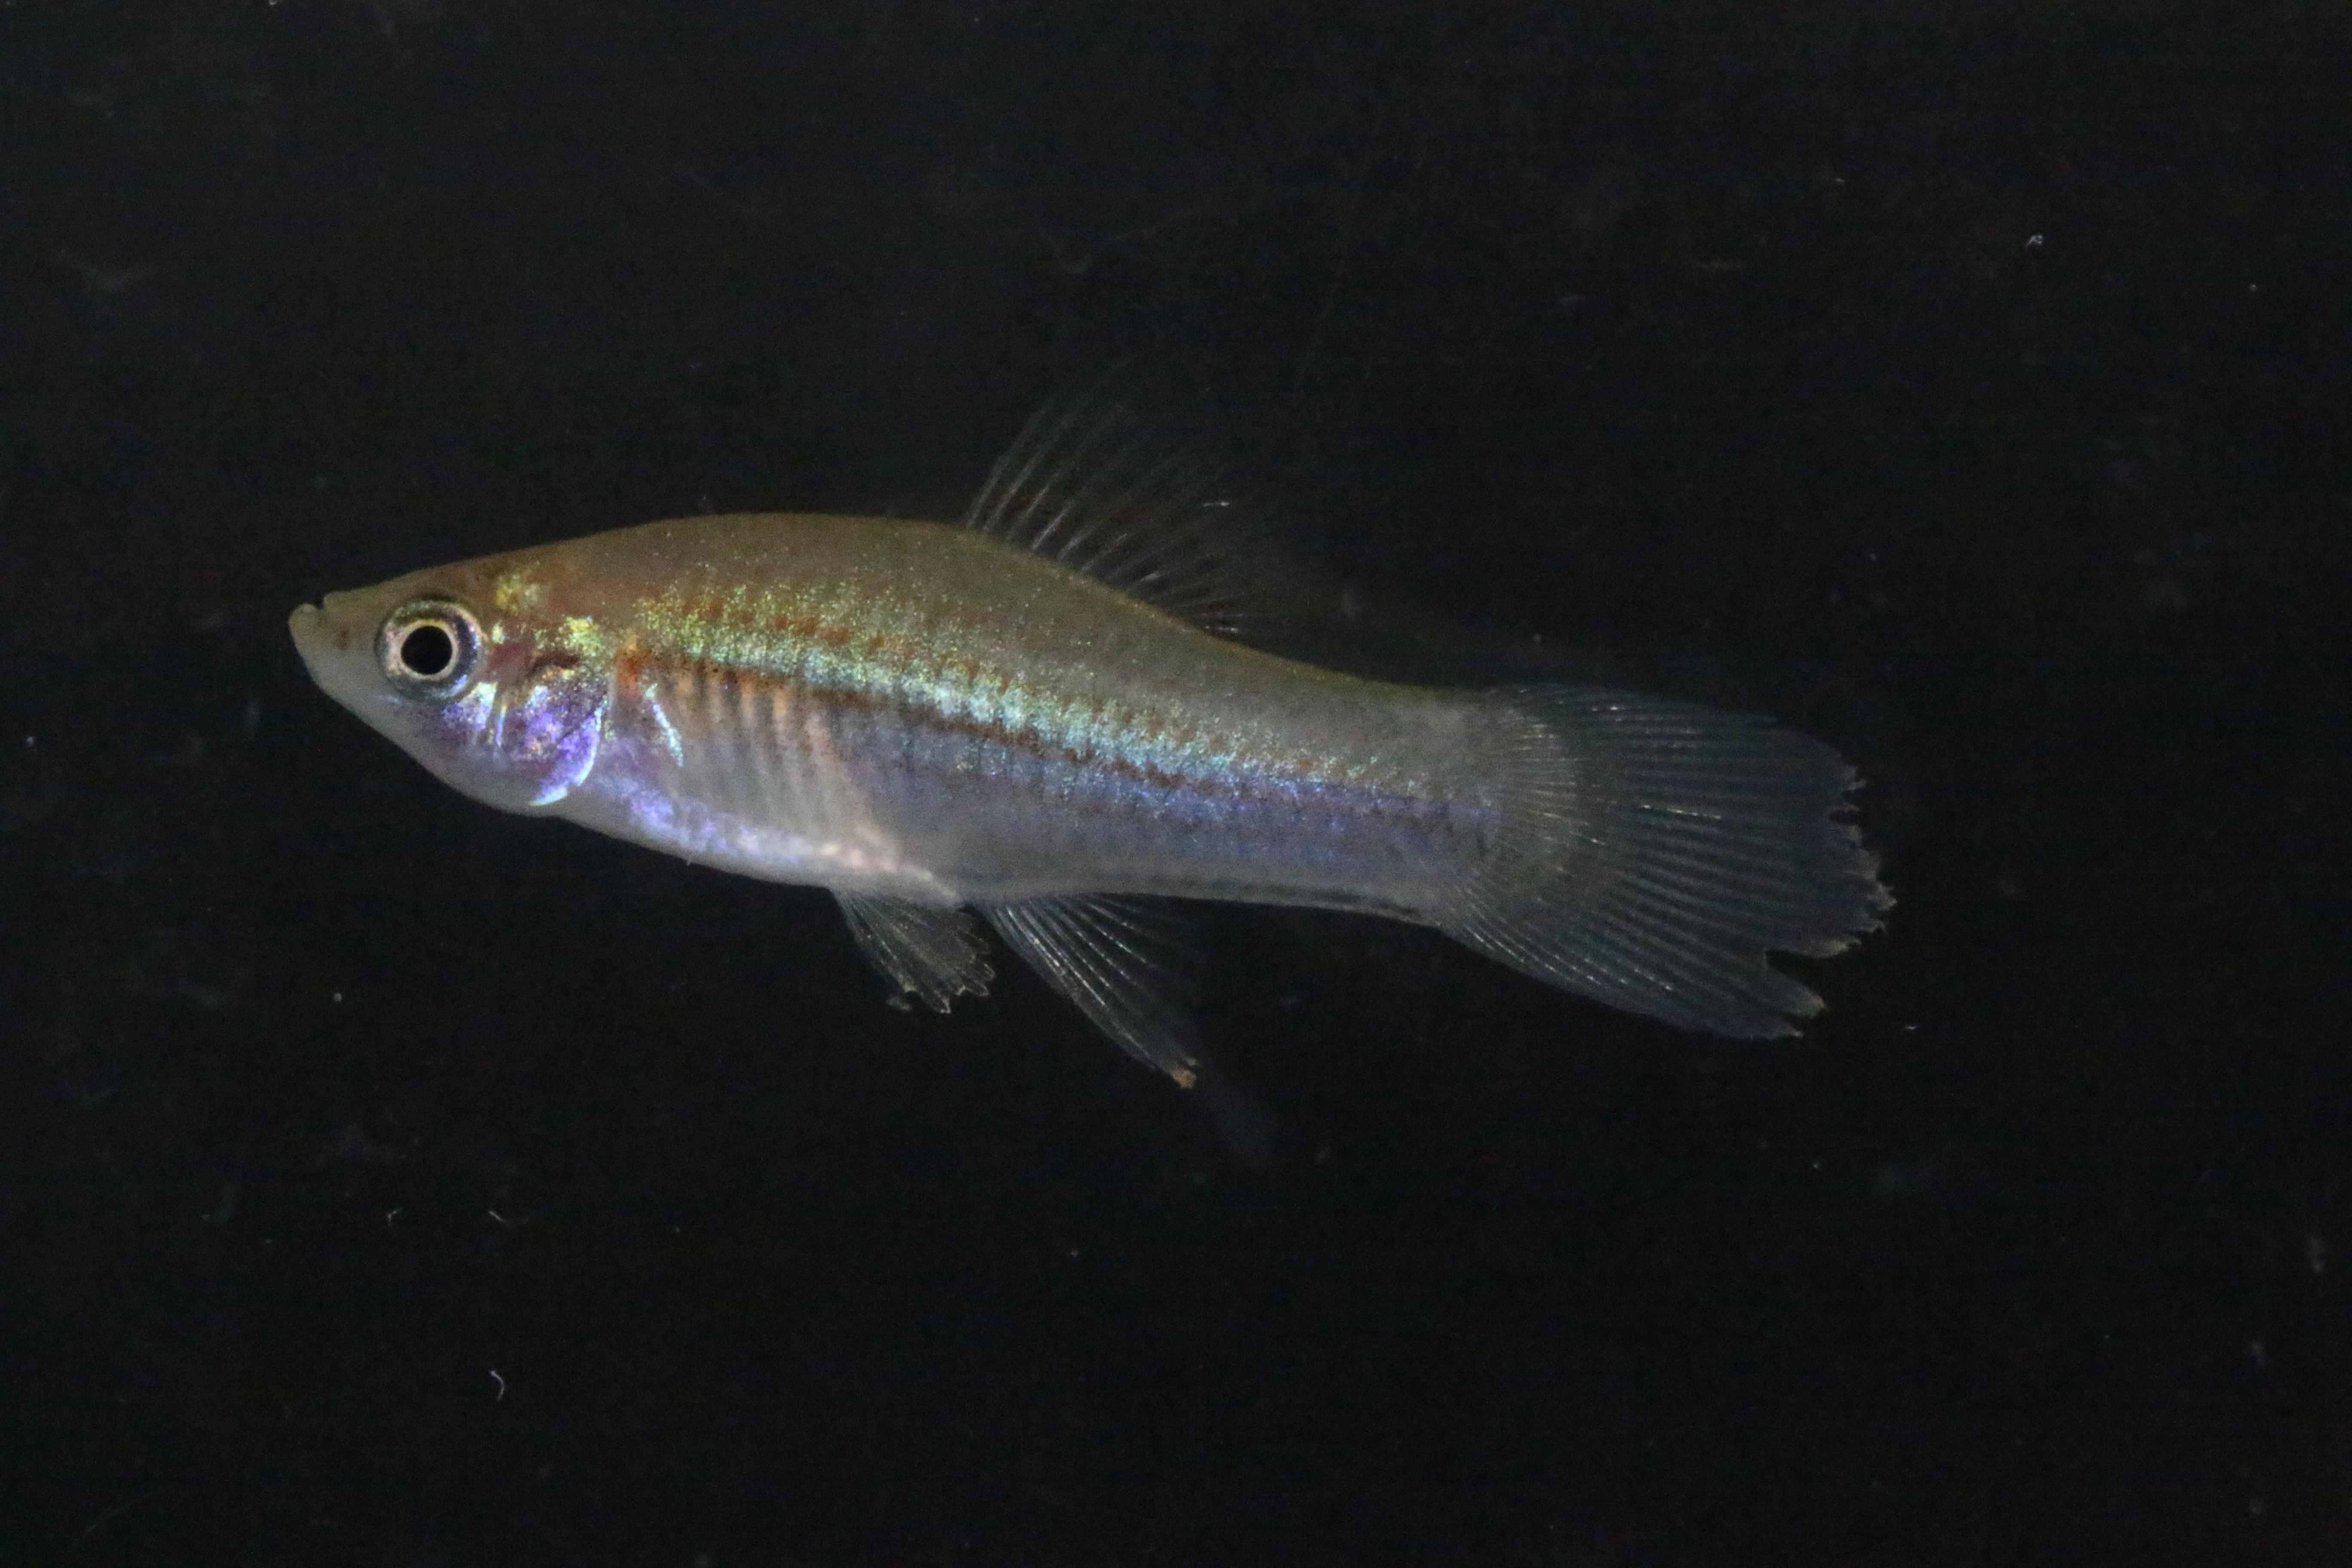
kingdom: Animalia
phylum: Chordata
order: Cyprinodontiformes
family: Poeciliidae
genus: Xiphophorus
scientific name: Xiphophorus hellerii
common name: Green swordtail
